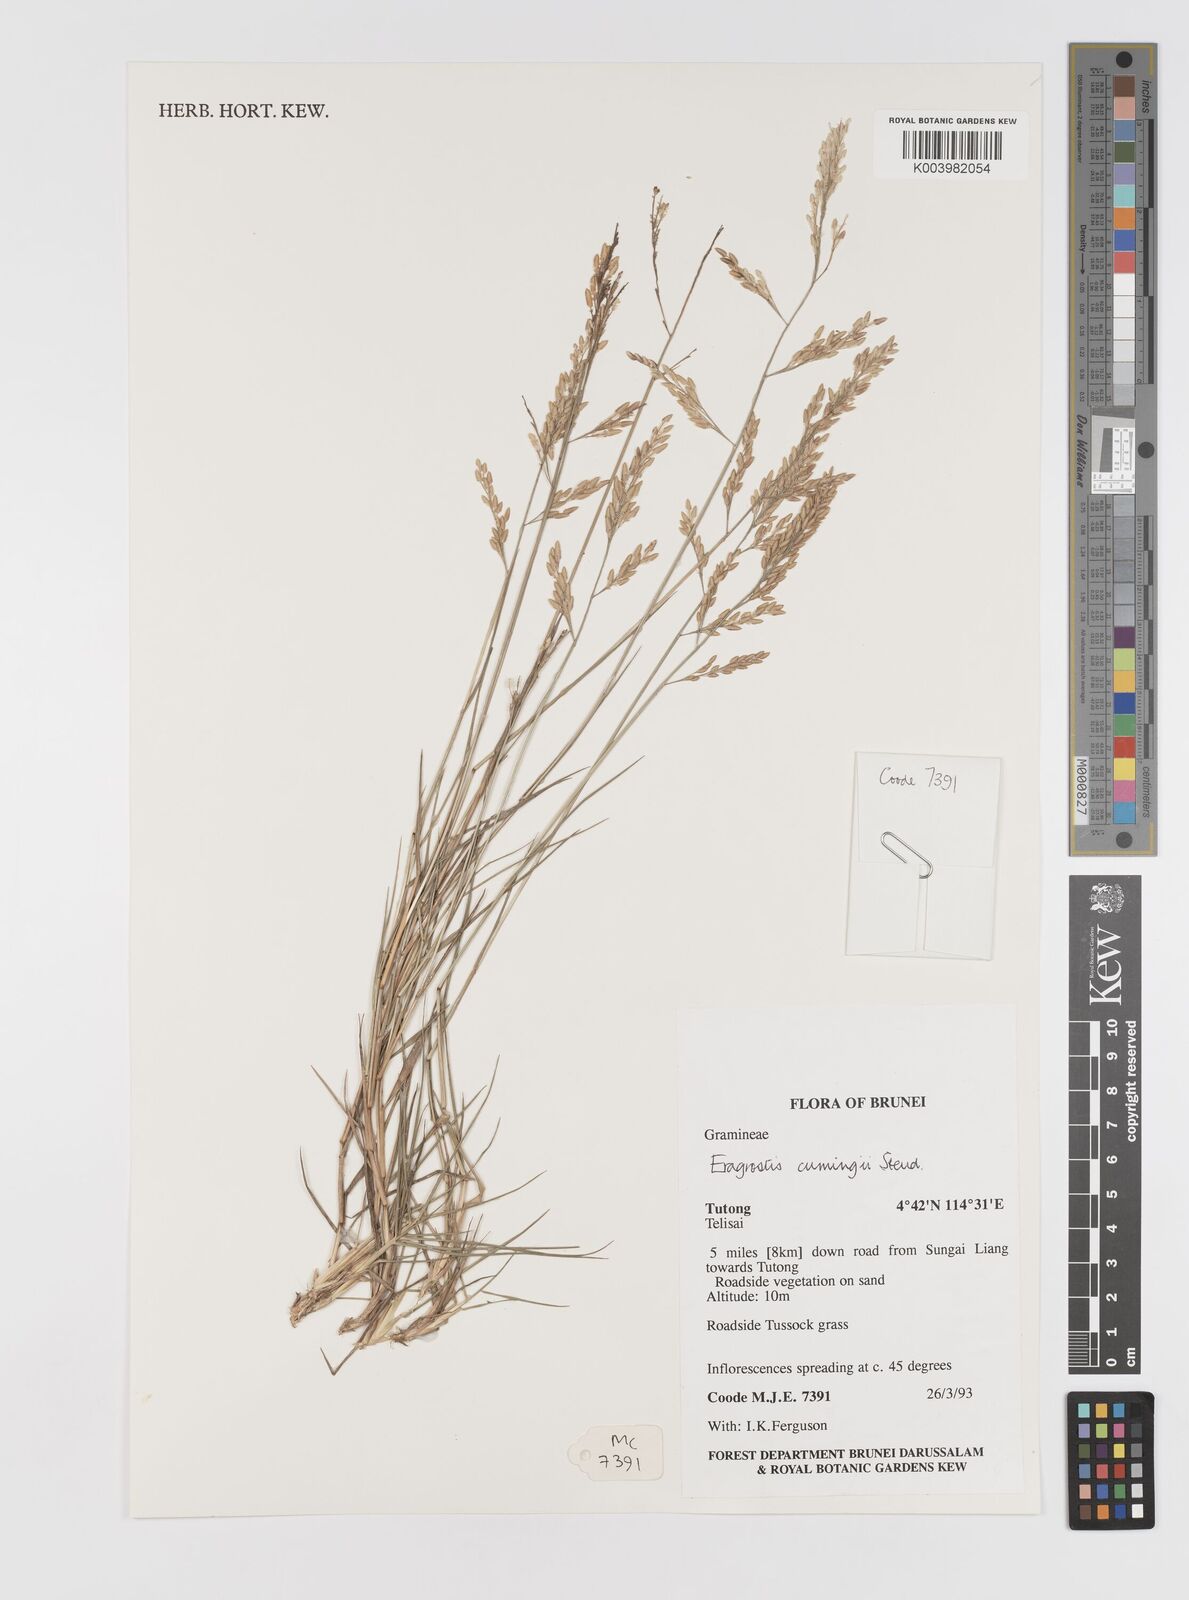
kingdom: Plantae
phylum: Tracheophyta
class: Liliopsida
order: Poales
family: Poaceae
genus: Eragrostis
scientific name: Eragrostis cumingii
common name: Cuming's lovegrass
